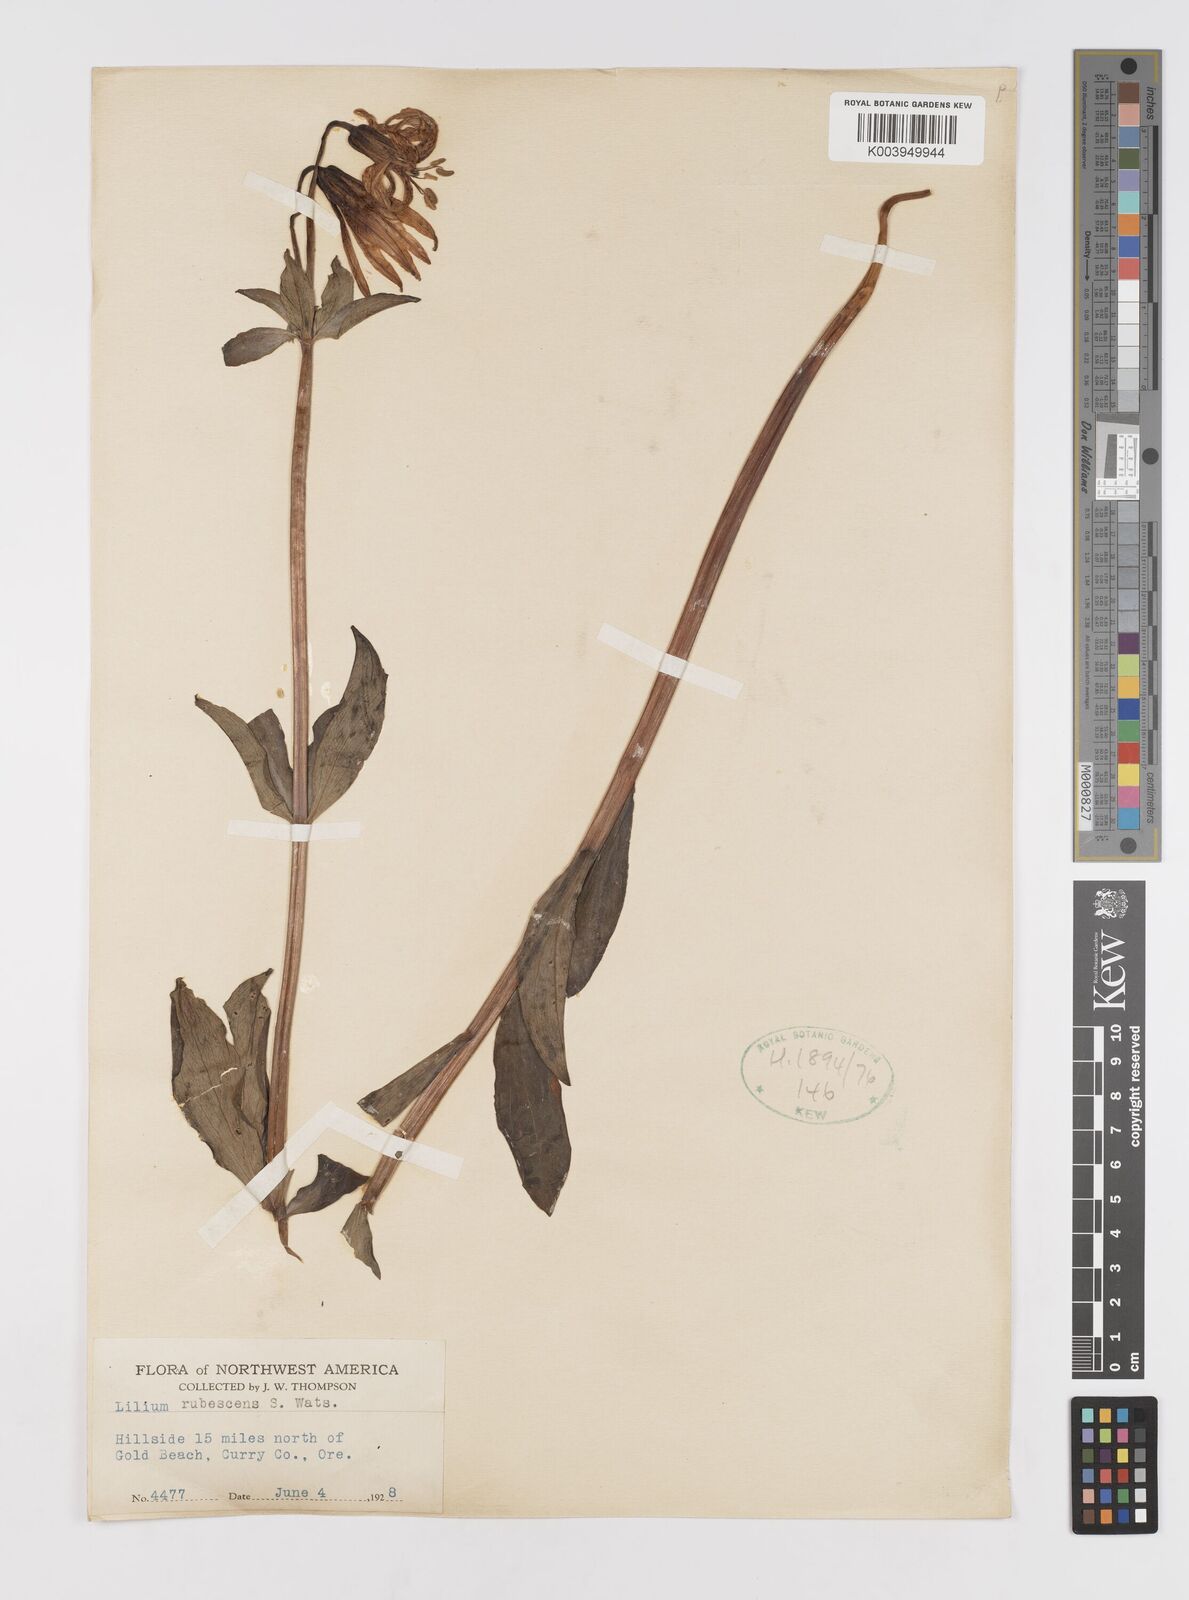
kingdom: Plantae
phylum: Tracheophyta
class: Liliopsida
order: Liliales
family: Liliaceae
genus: Lilium
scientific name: Lilium washingtonianum
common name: Washington lily
